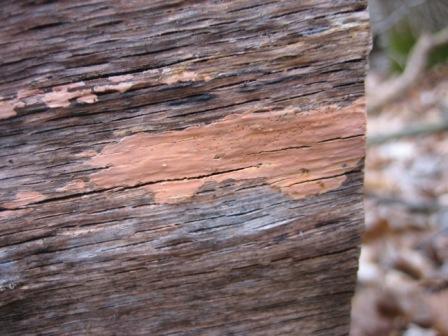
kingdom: Fungi
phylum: Basidiomycota
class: Agaricomycetes
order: Russulales
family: Peniophoraceae
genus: Peniophora
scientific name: Peniophora incarnata
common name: laksefarvet voksskind
